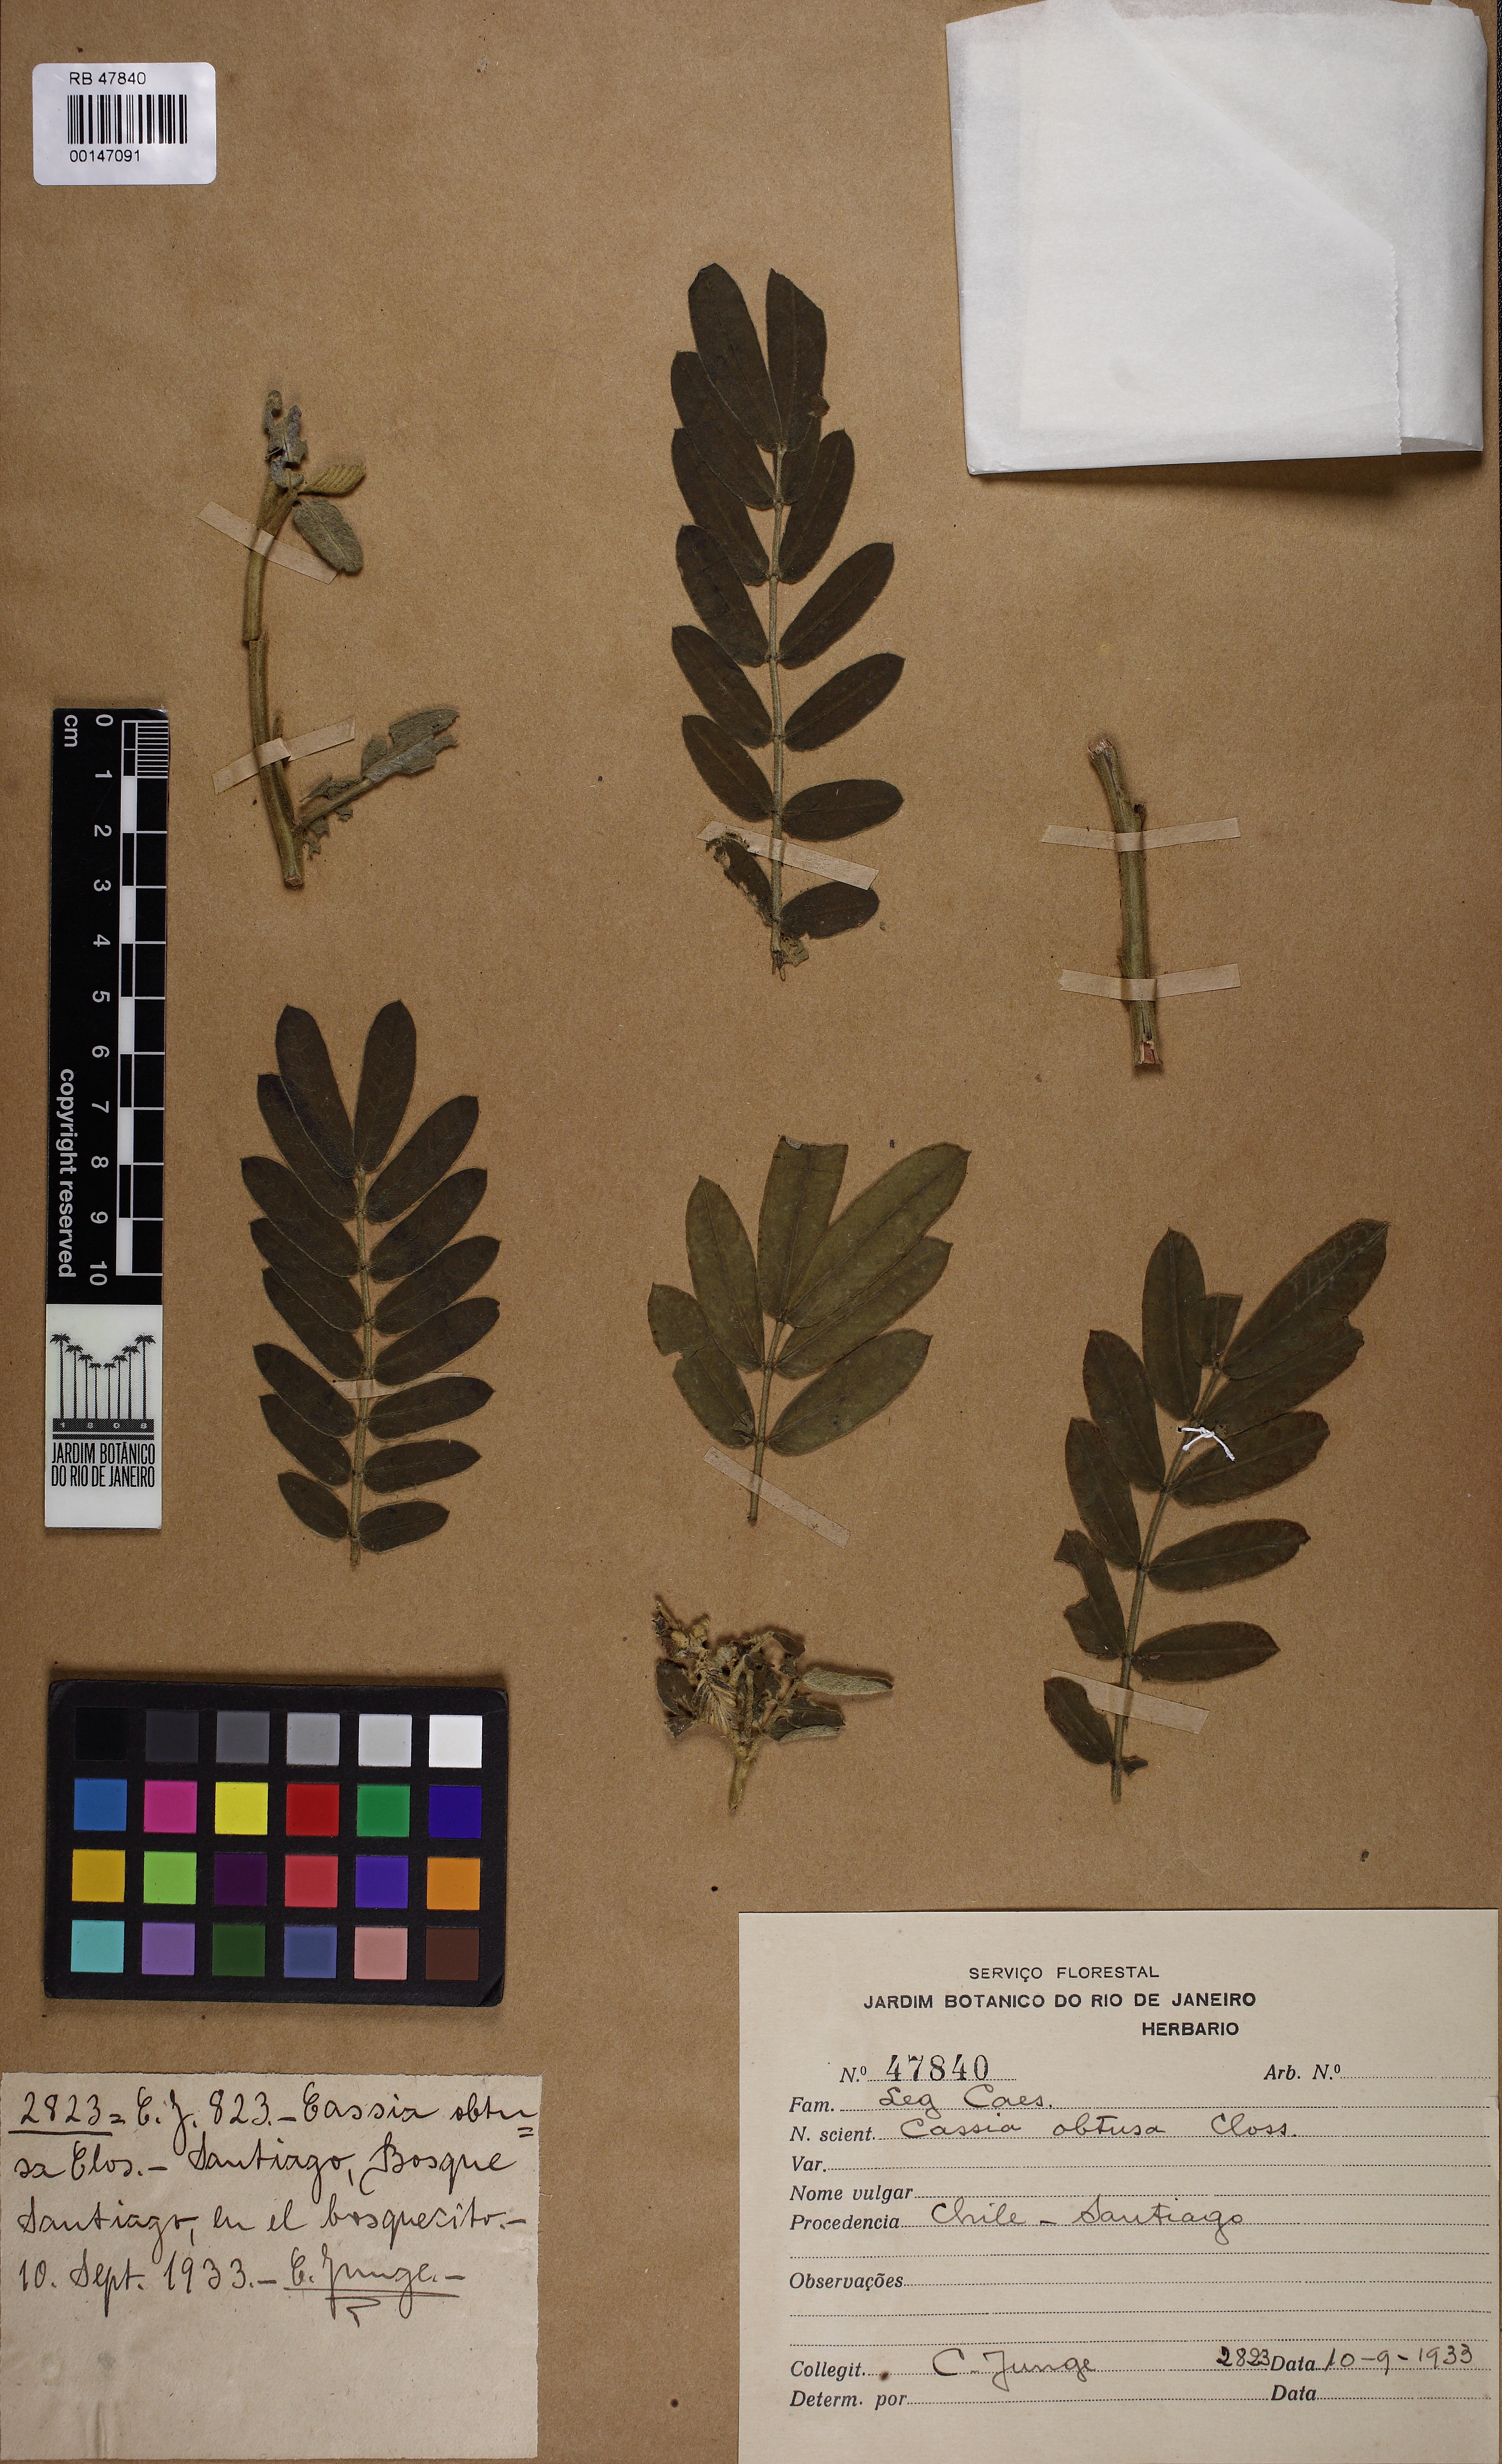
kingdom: Plantae
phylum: Tracheophyta
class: Magnoliopsida
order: Fabales
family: Fabaceae
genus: Senna
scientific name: Senna candolleana
